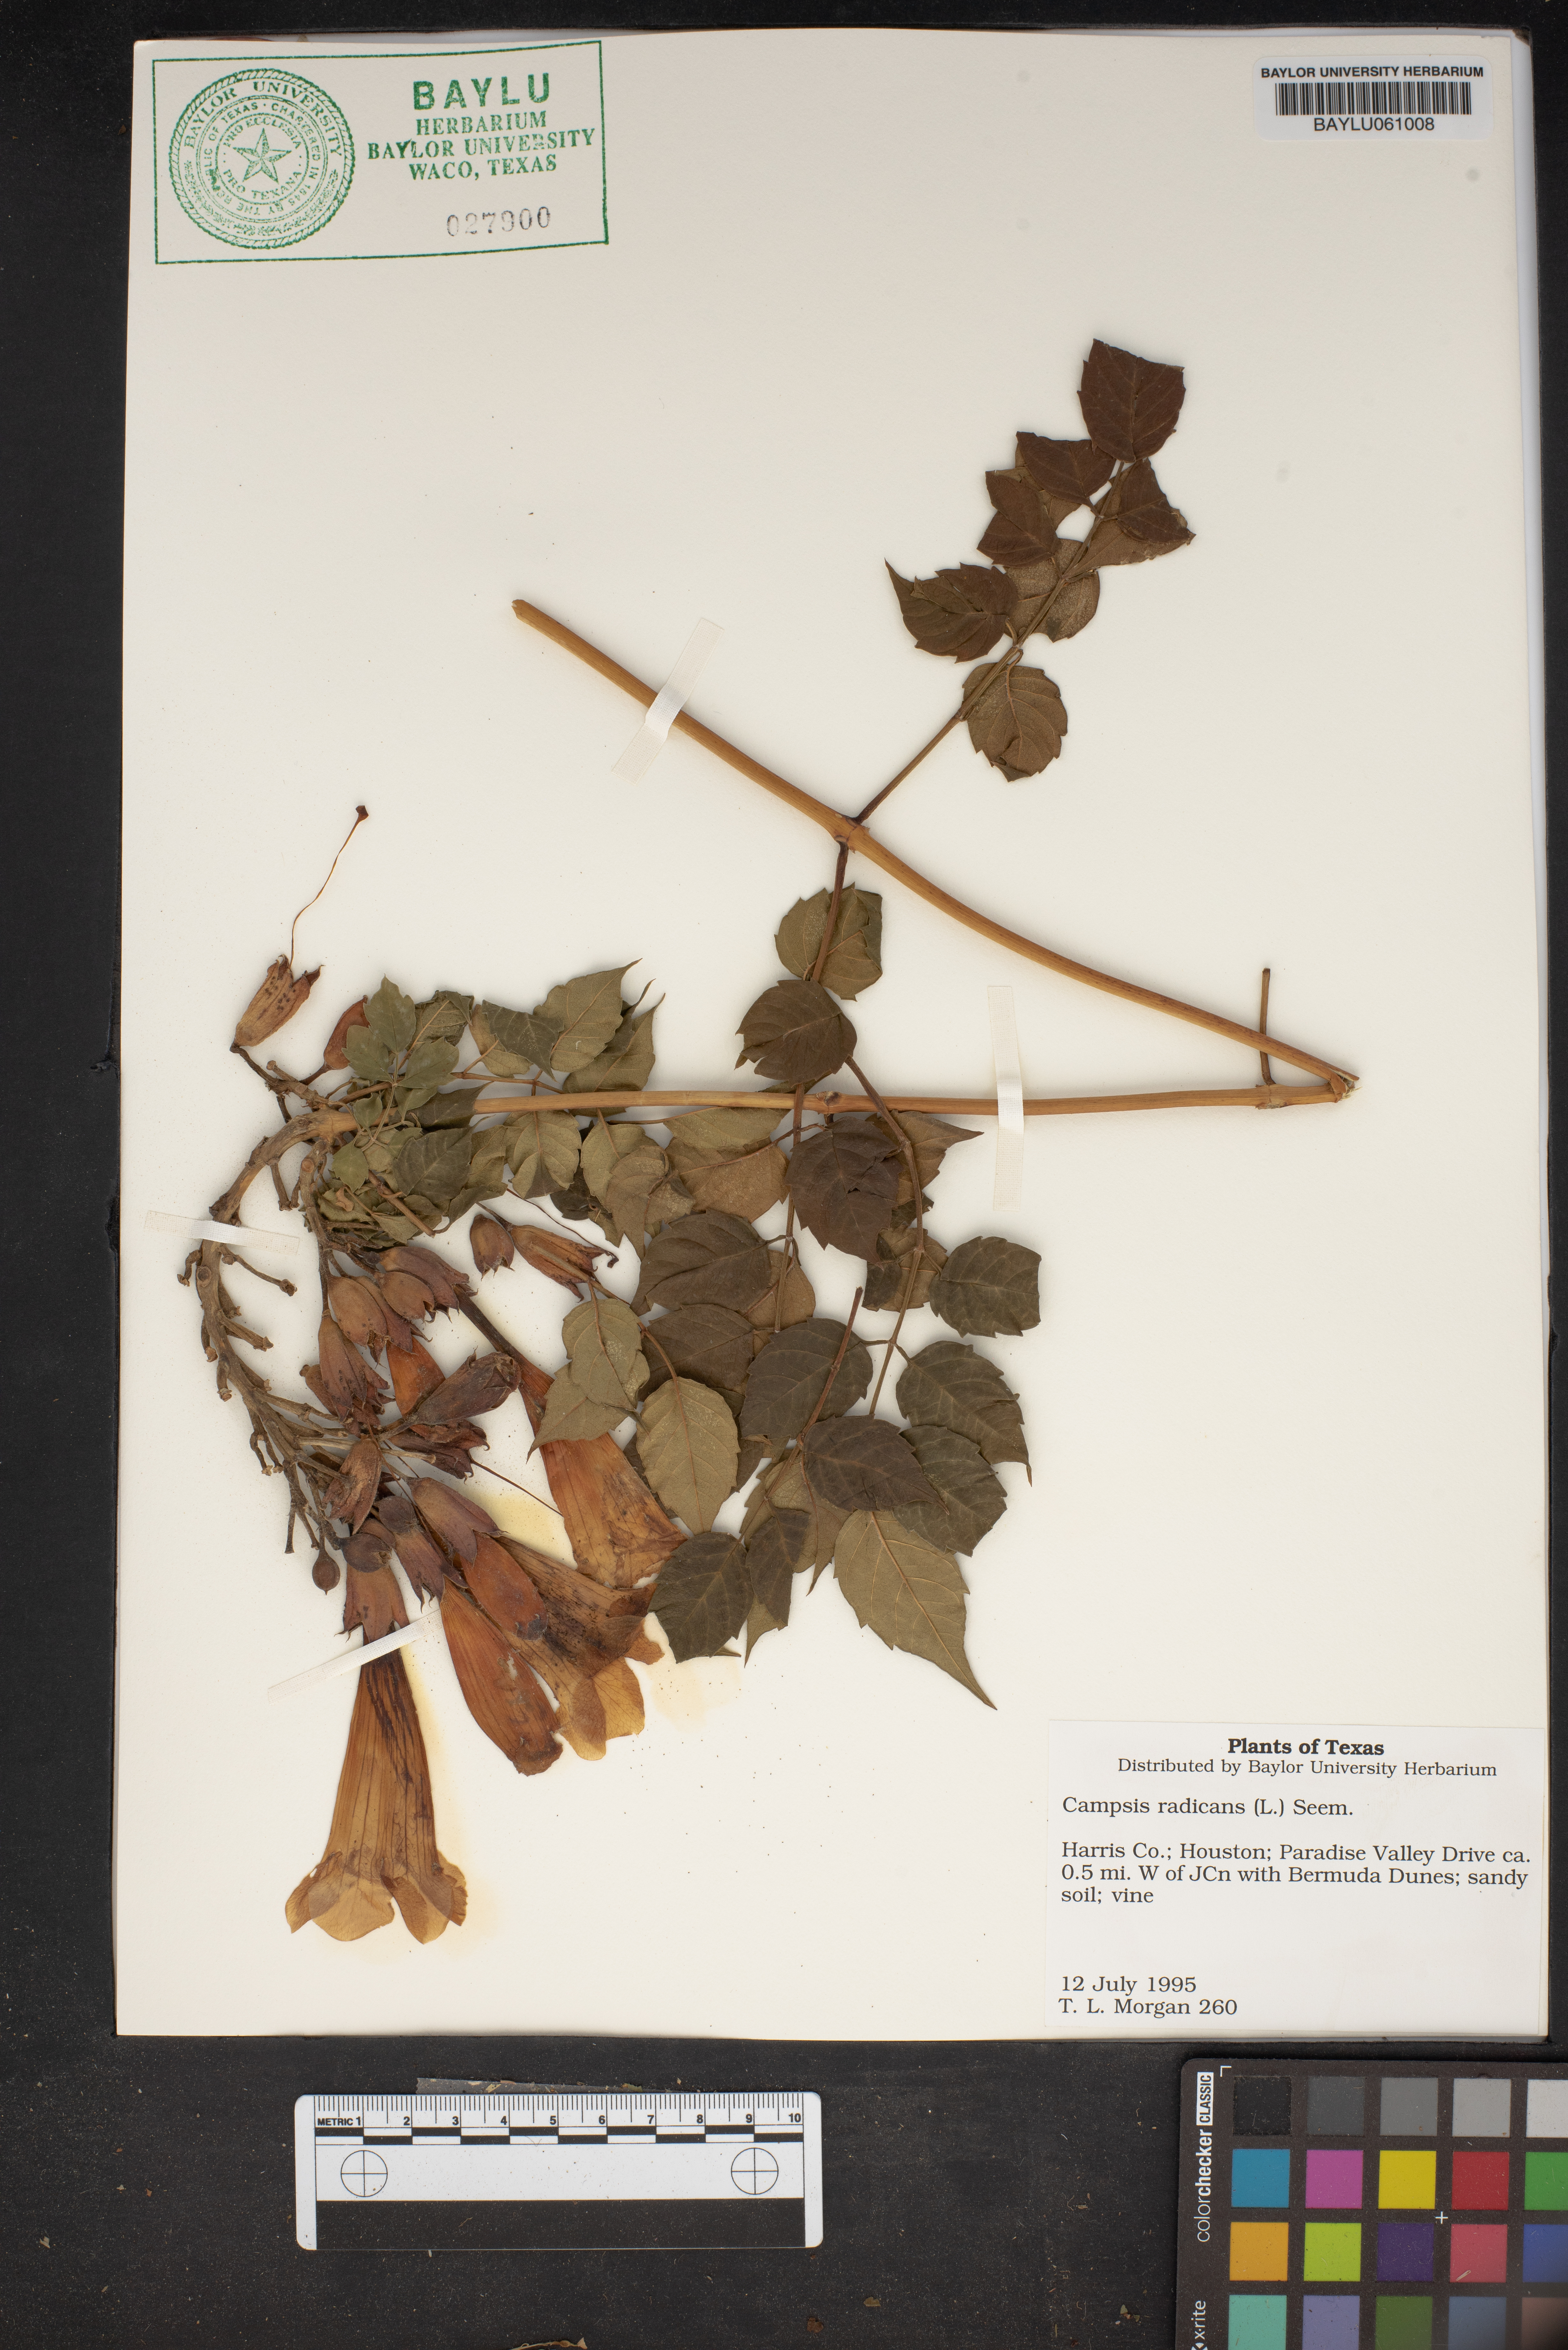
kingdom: Plantae
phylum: Tracheophyta
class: Magnoliopsida
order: Lamiales
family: Bignoniaceae
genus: Campsis
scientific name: Campsis radicans
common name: Trumpet-creeper
